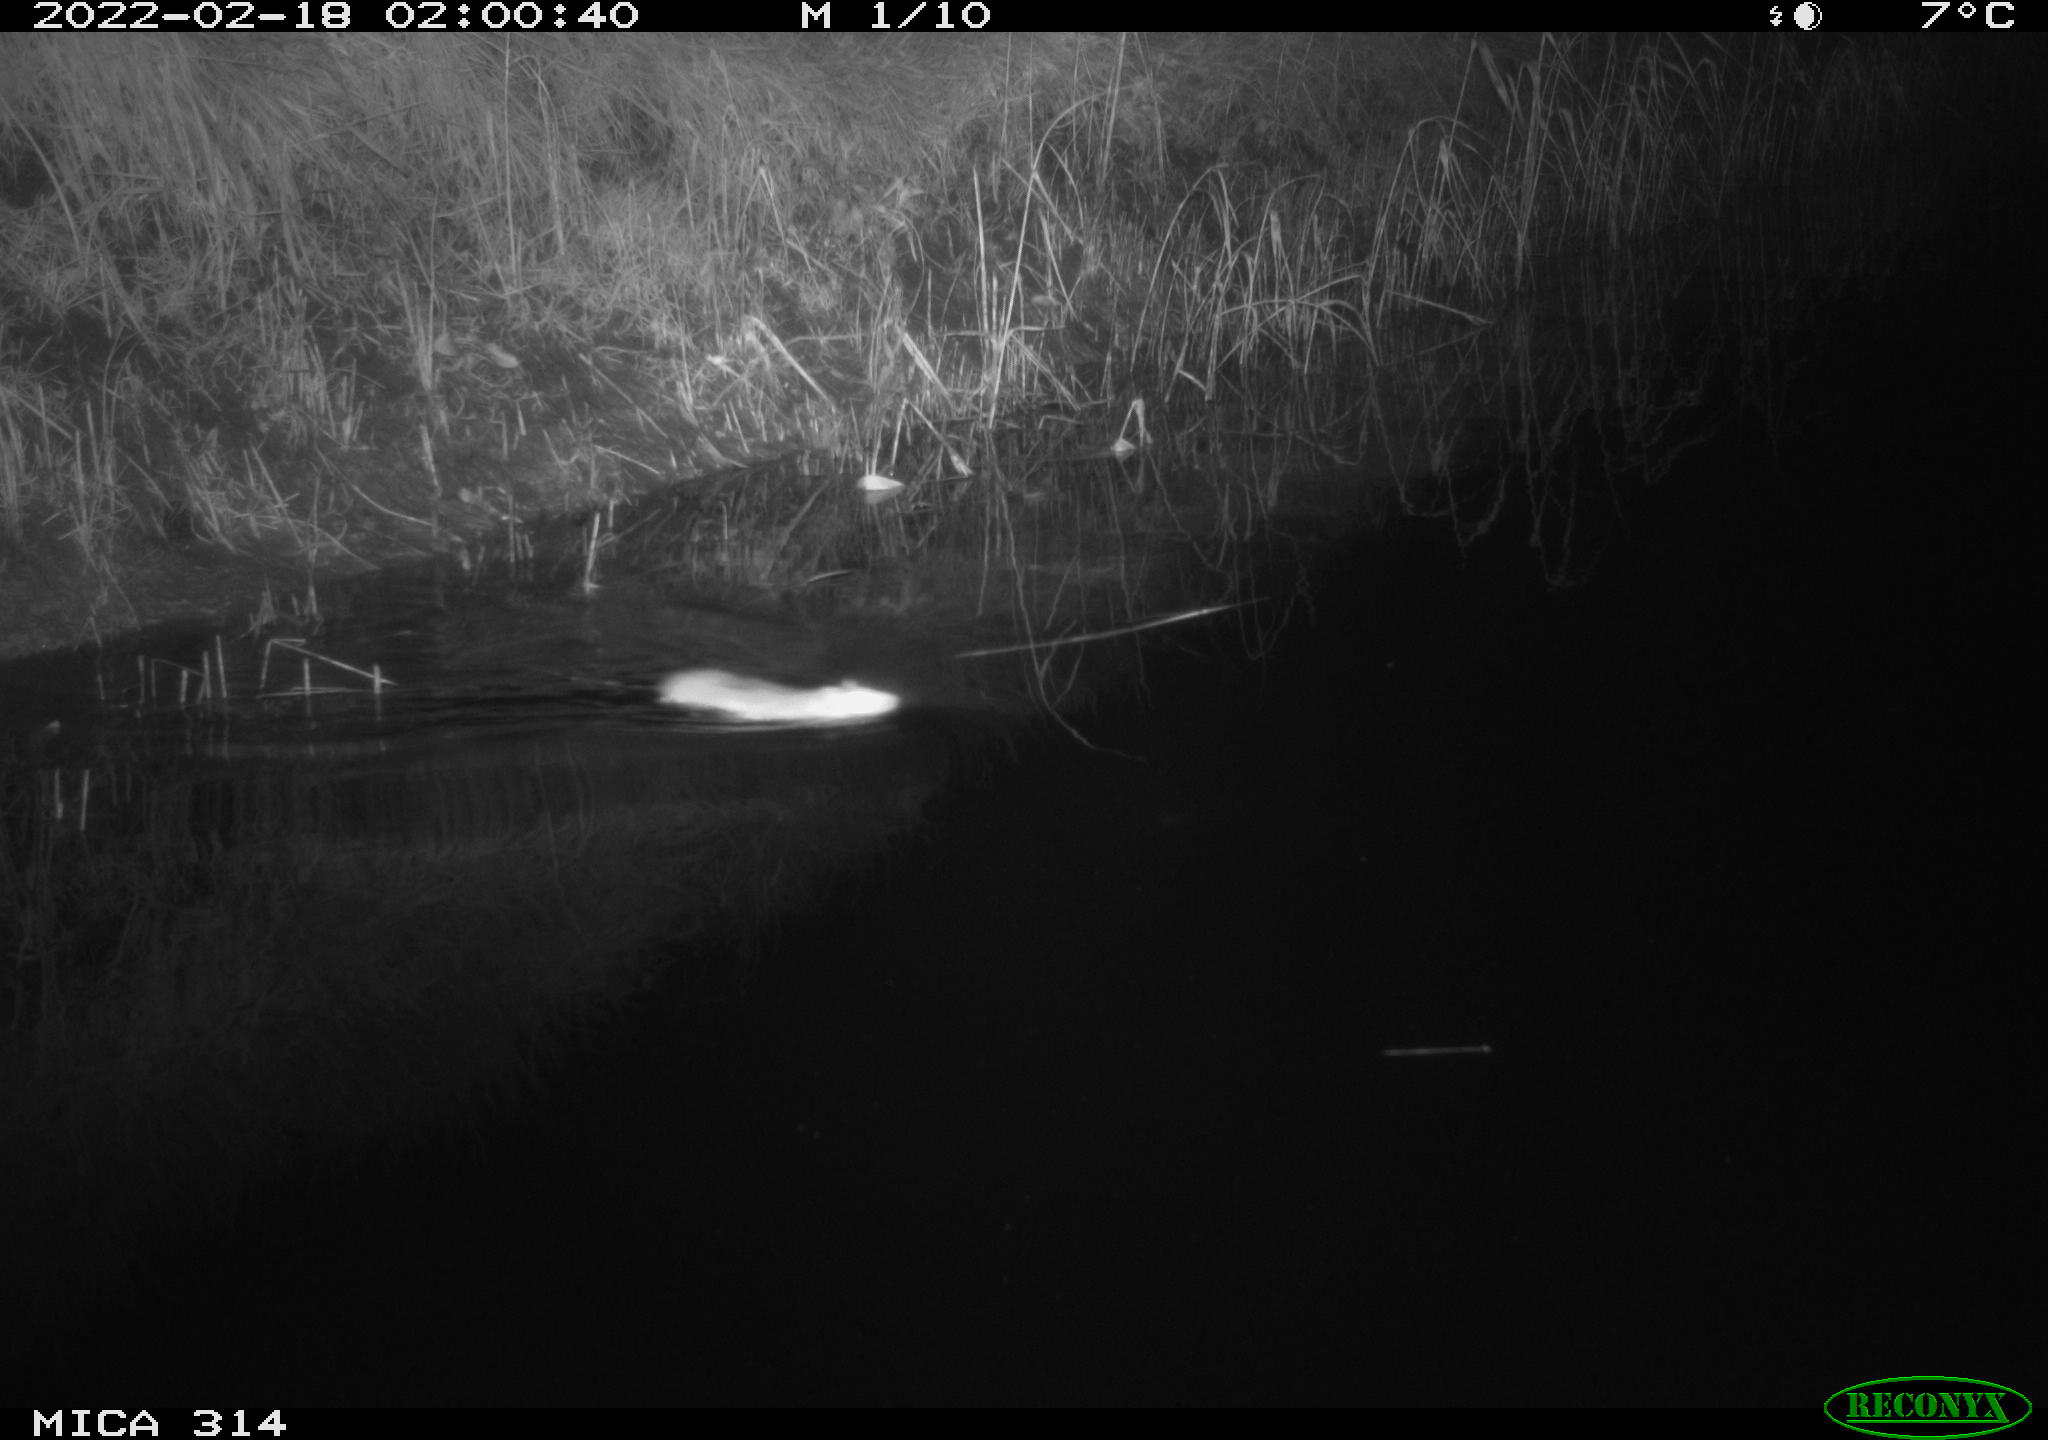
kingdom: Animalia
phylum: Chordata
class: Mammalia
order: Rodentia
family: Muridae
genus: Rattus
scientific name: Rattus norvegicus
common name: Brown rat
